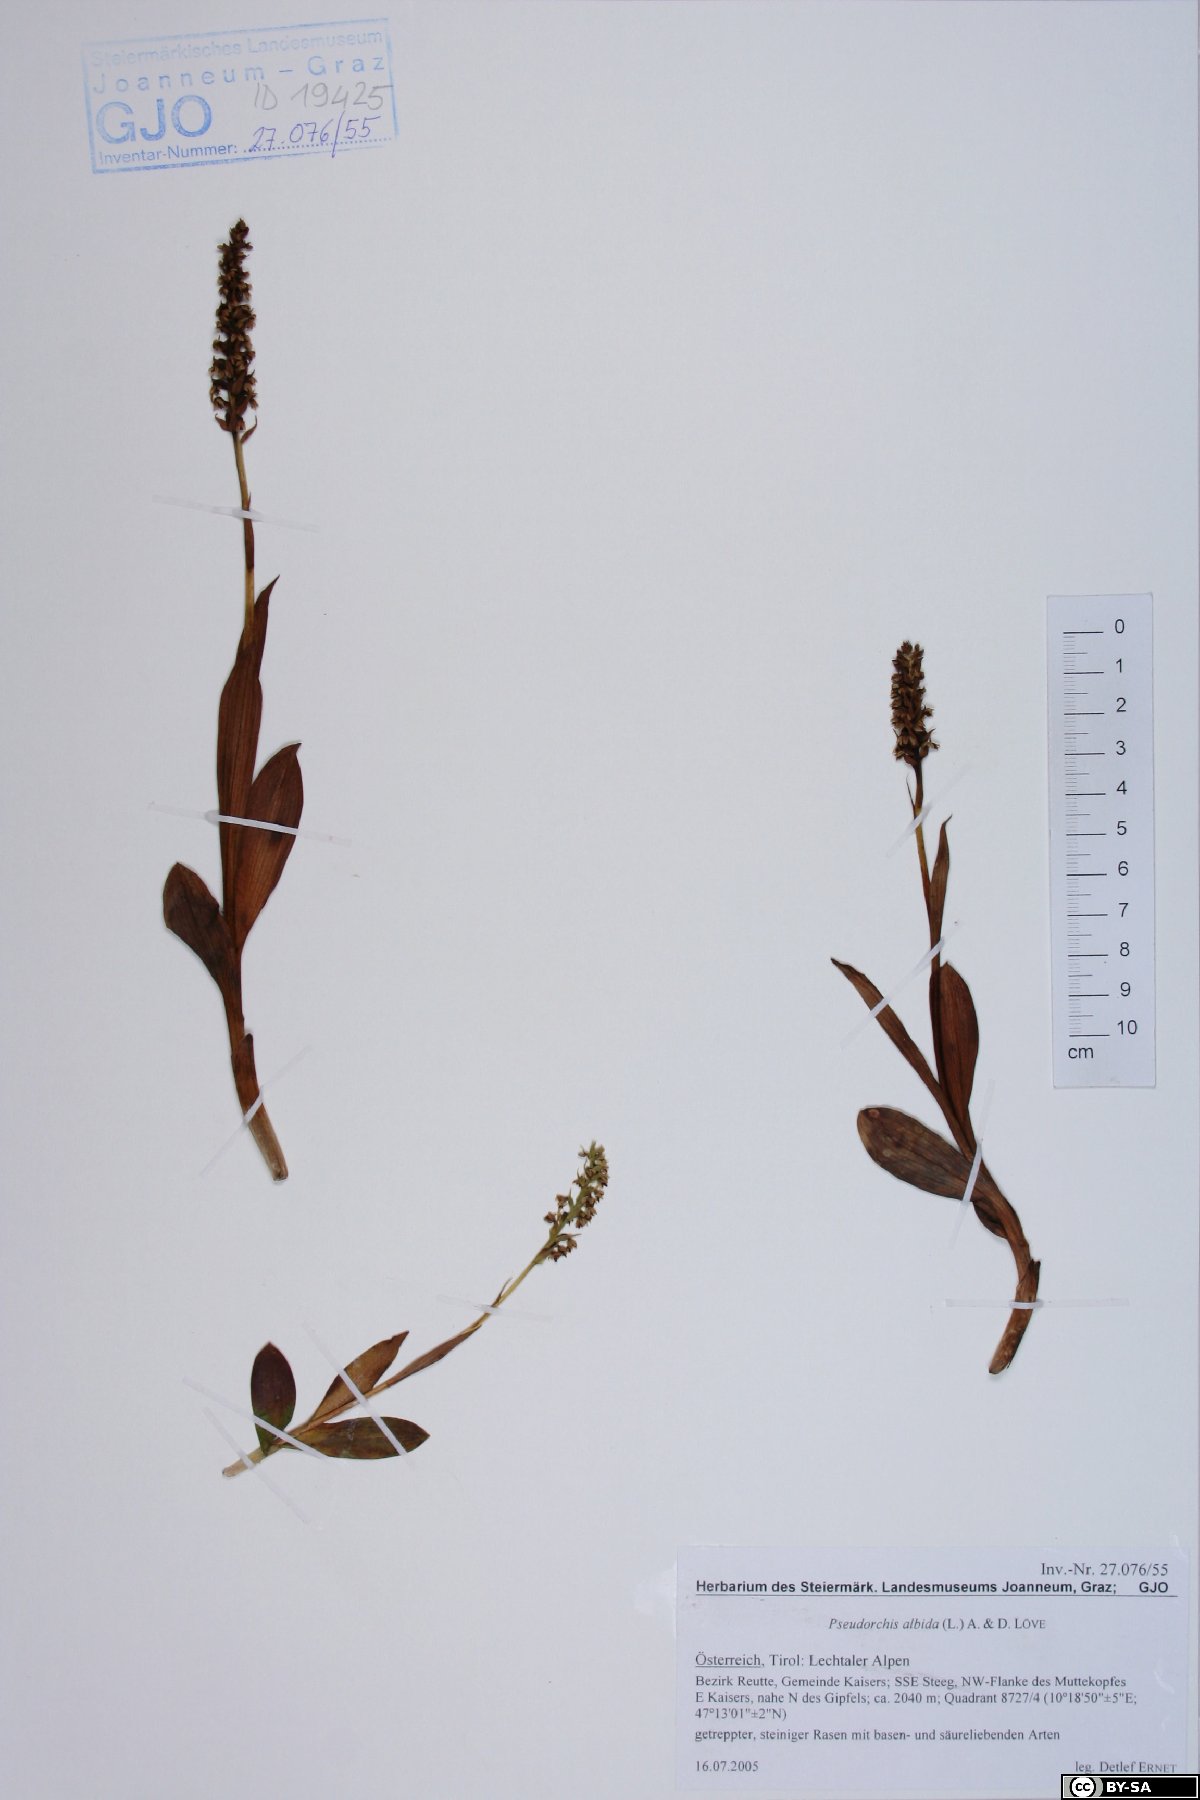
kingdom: Plantae
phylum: Tracheophyta
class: Liliopsida
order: Asparagales
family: Orchidaceae
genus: Pseudorchis
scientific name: Pseudorchis albida
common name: Small-white orchid
